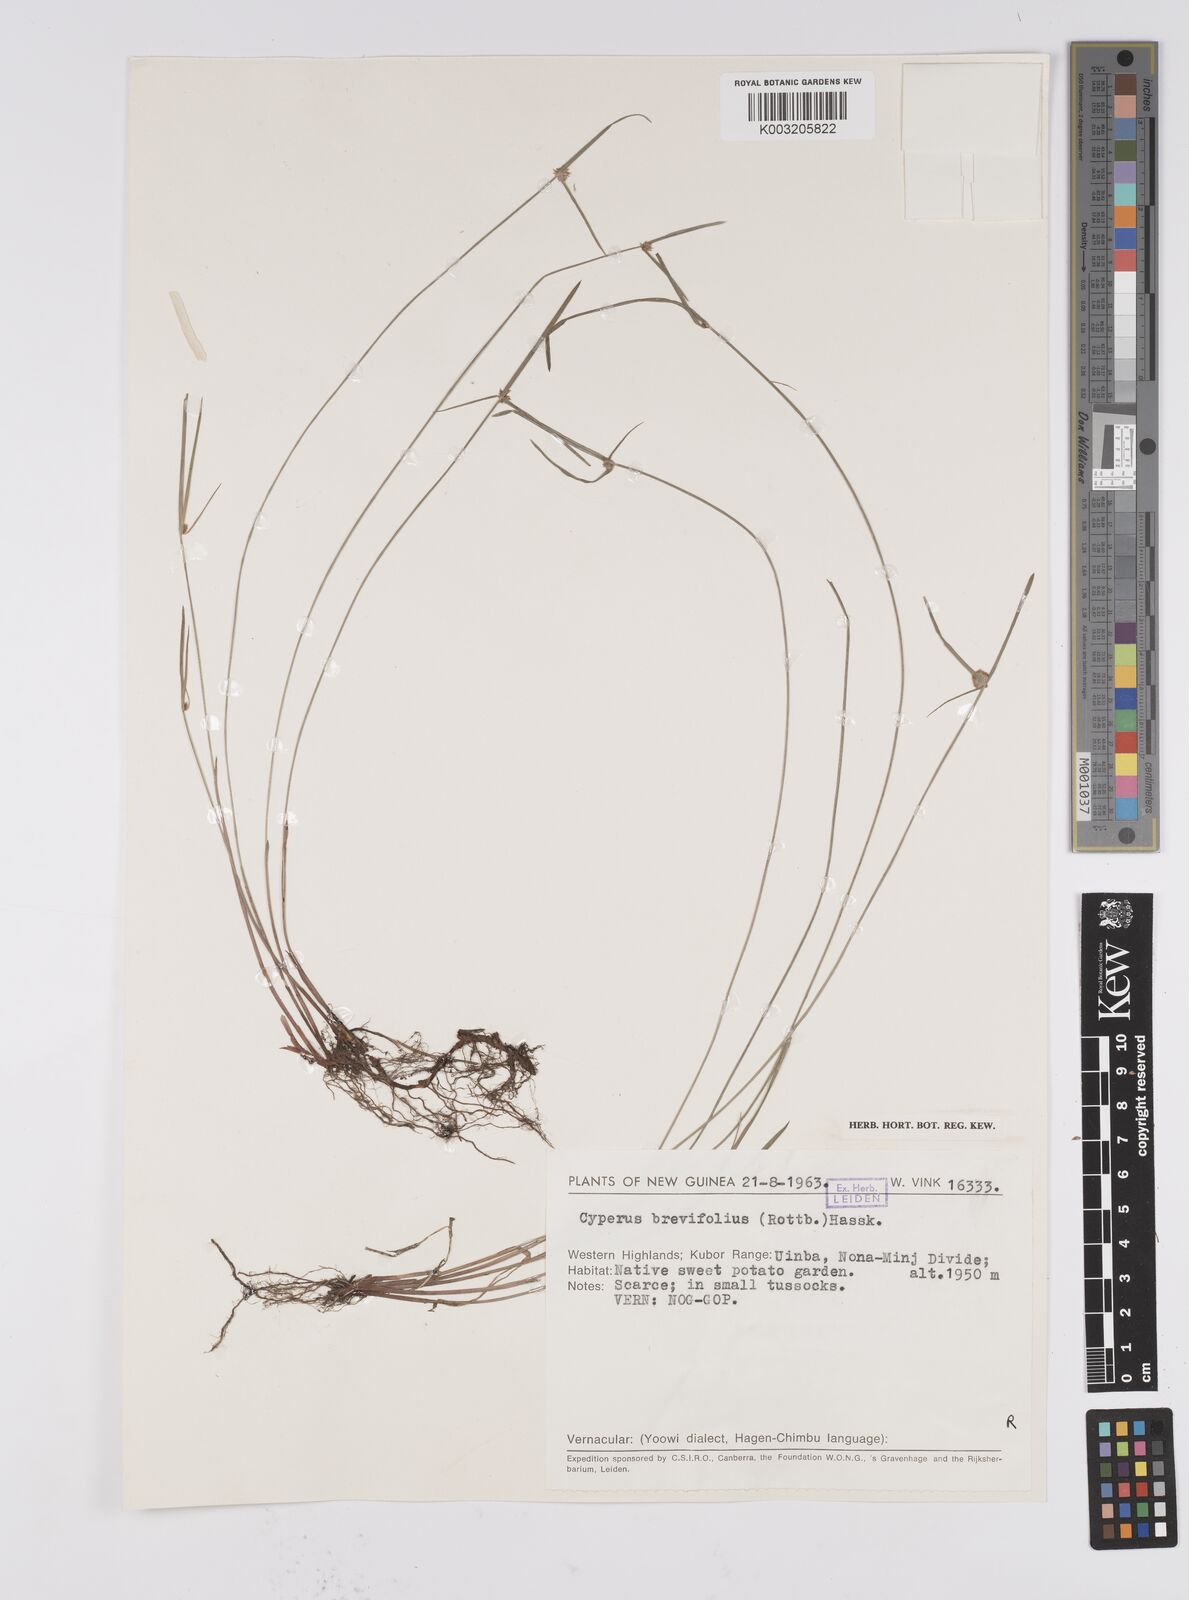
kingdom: Plantae
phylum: Tracheophyta
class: Liliopsida
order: Poales
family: Cyperaceae
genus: Cyperus
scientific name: Cyperus brevifolius
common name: Globe kyllinga
